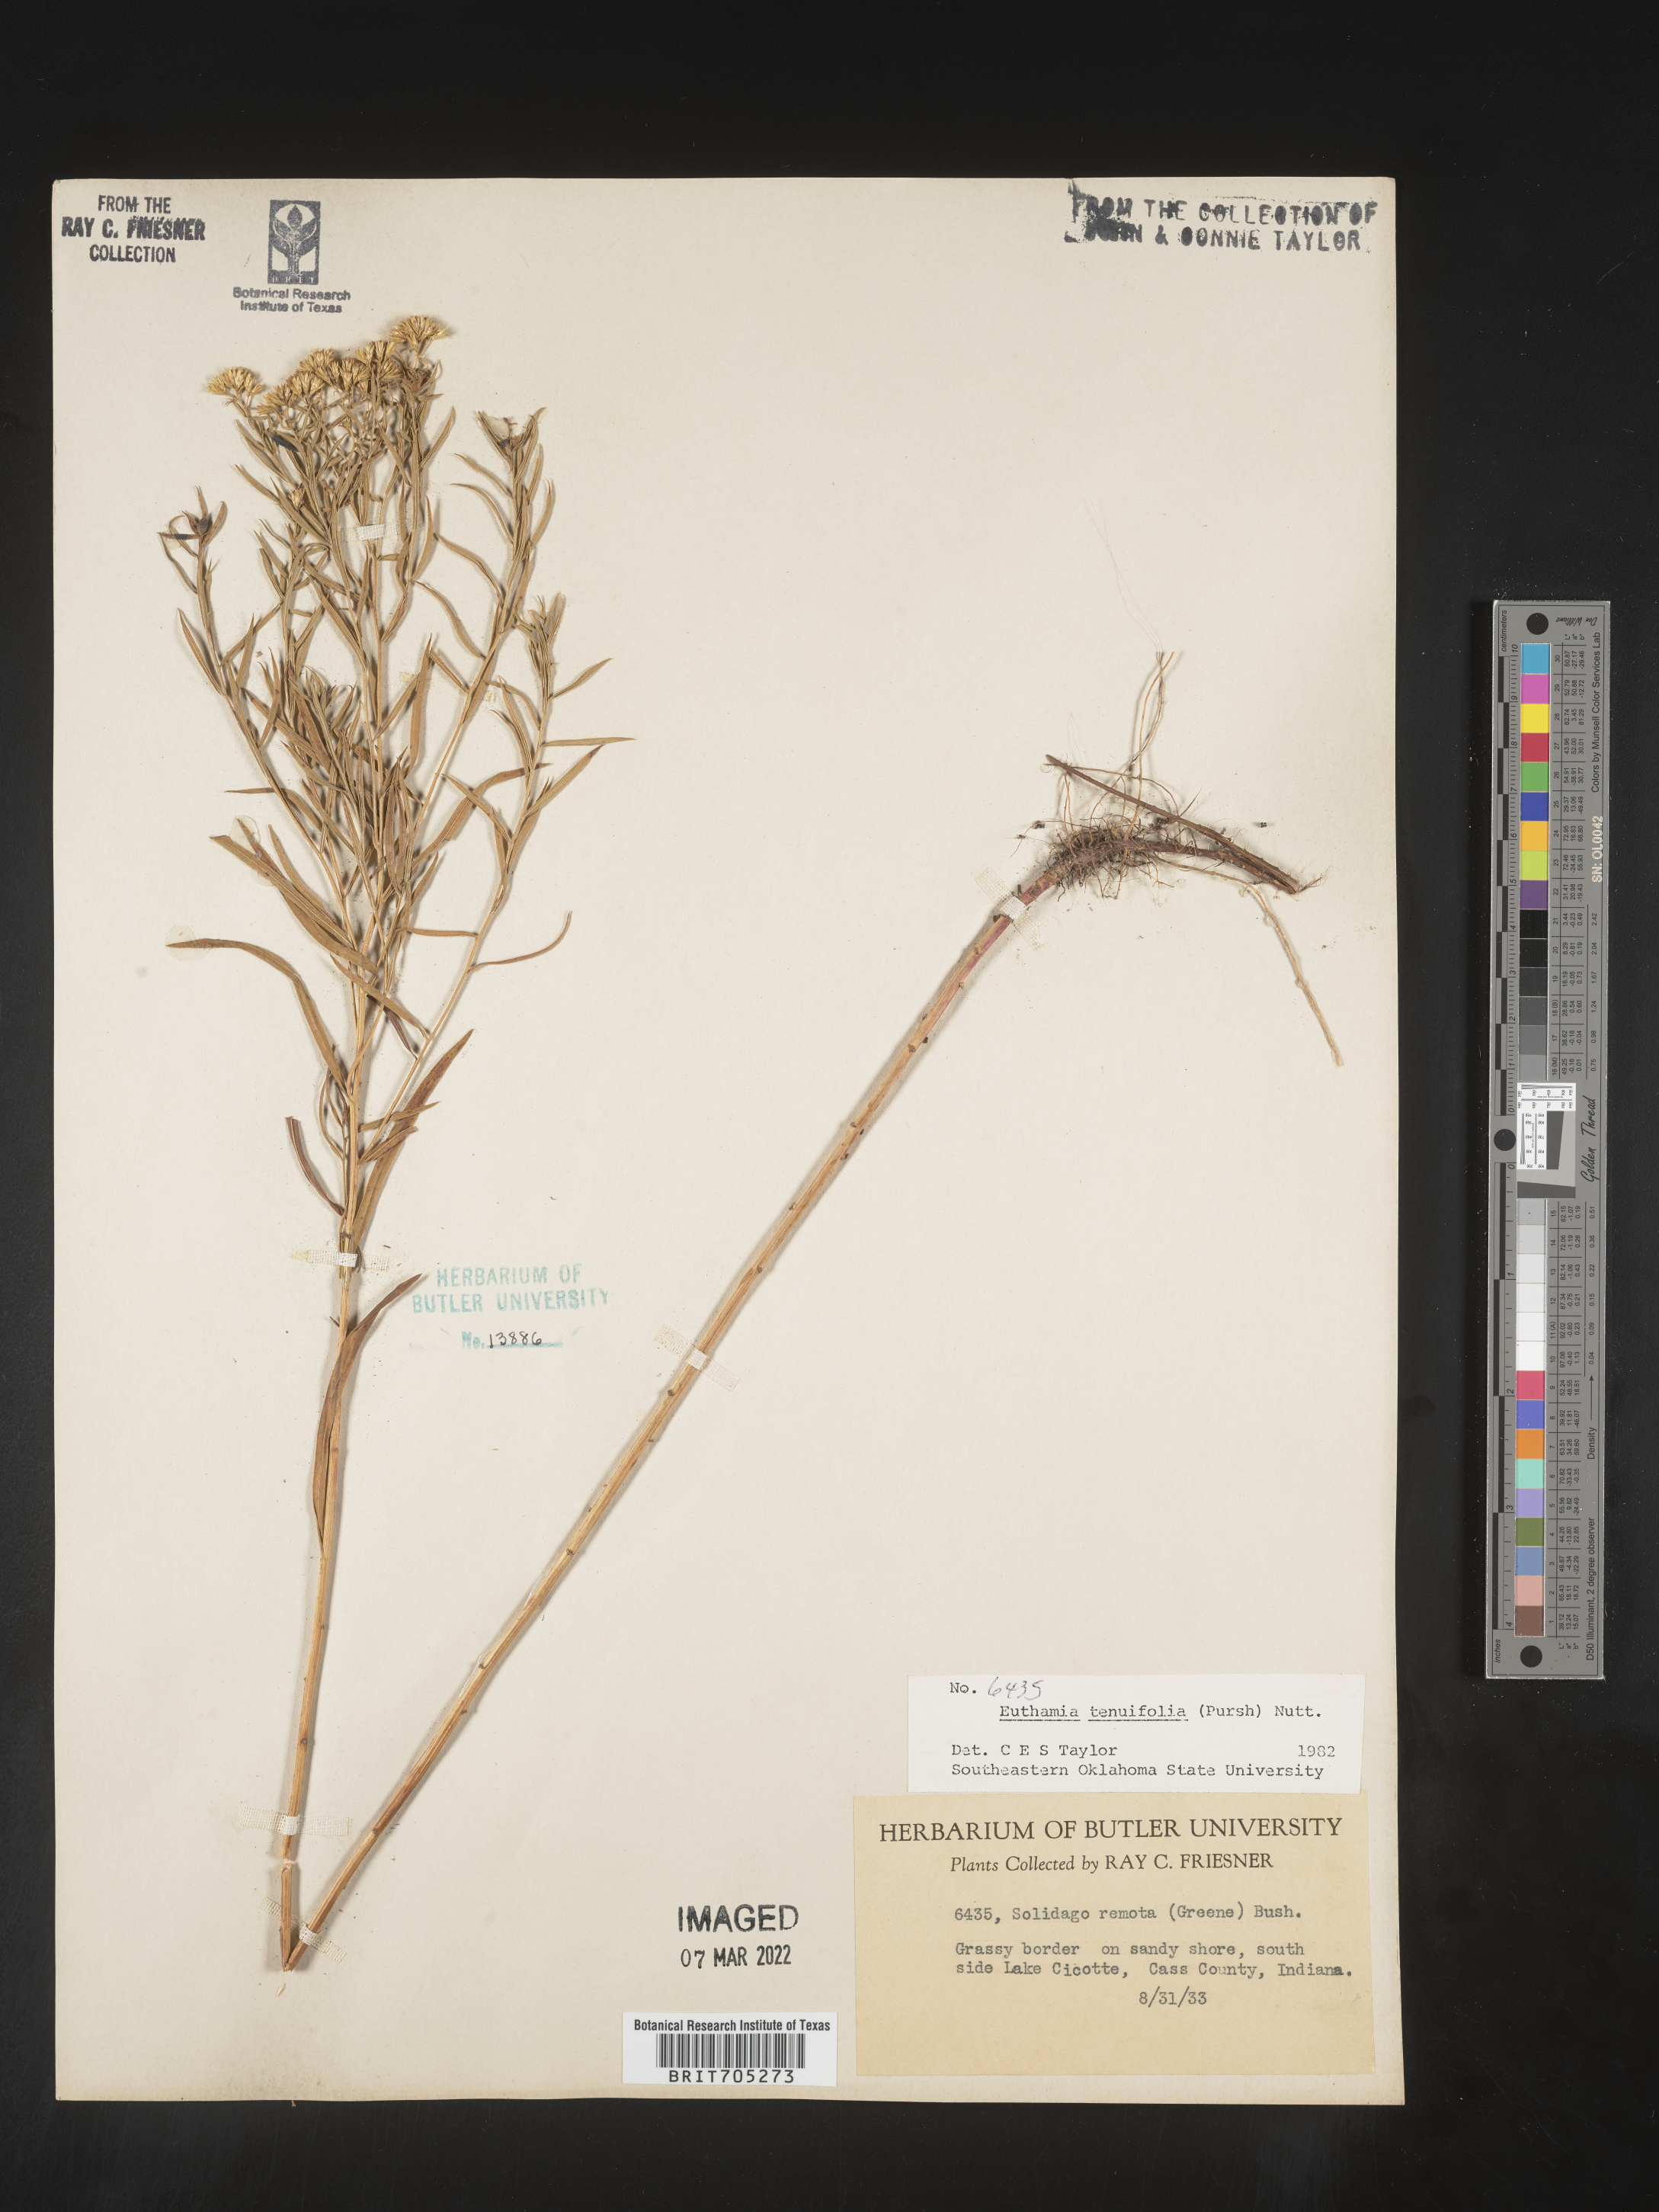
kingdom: Plantae
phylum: Tracheophyta
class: Magnoliopsida
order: Asterales
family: Asteraceae
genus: Euthamia
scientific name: Euthamia gymnospermoides
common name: Great plains goldentop
